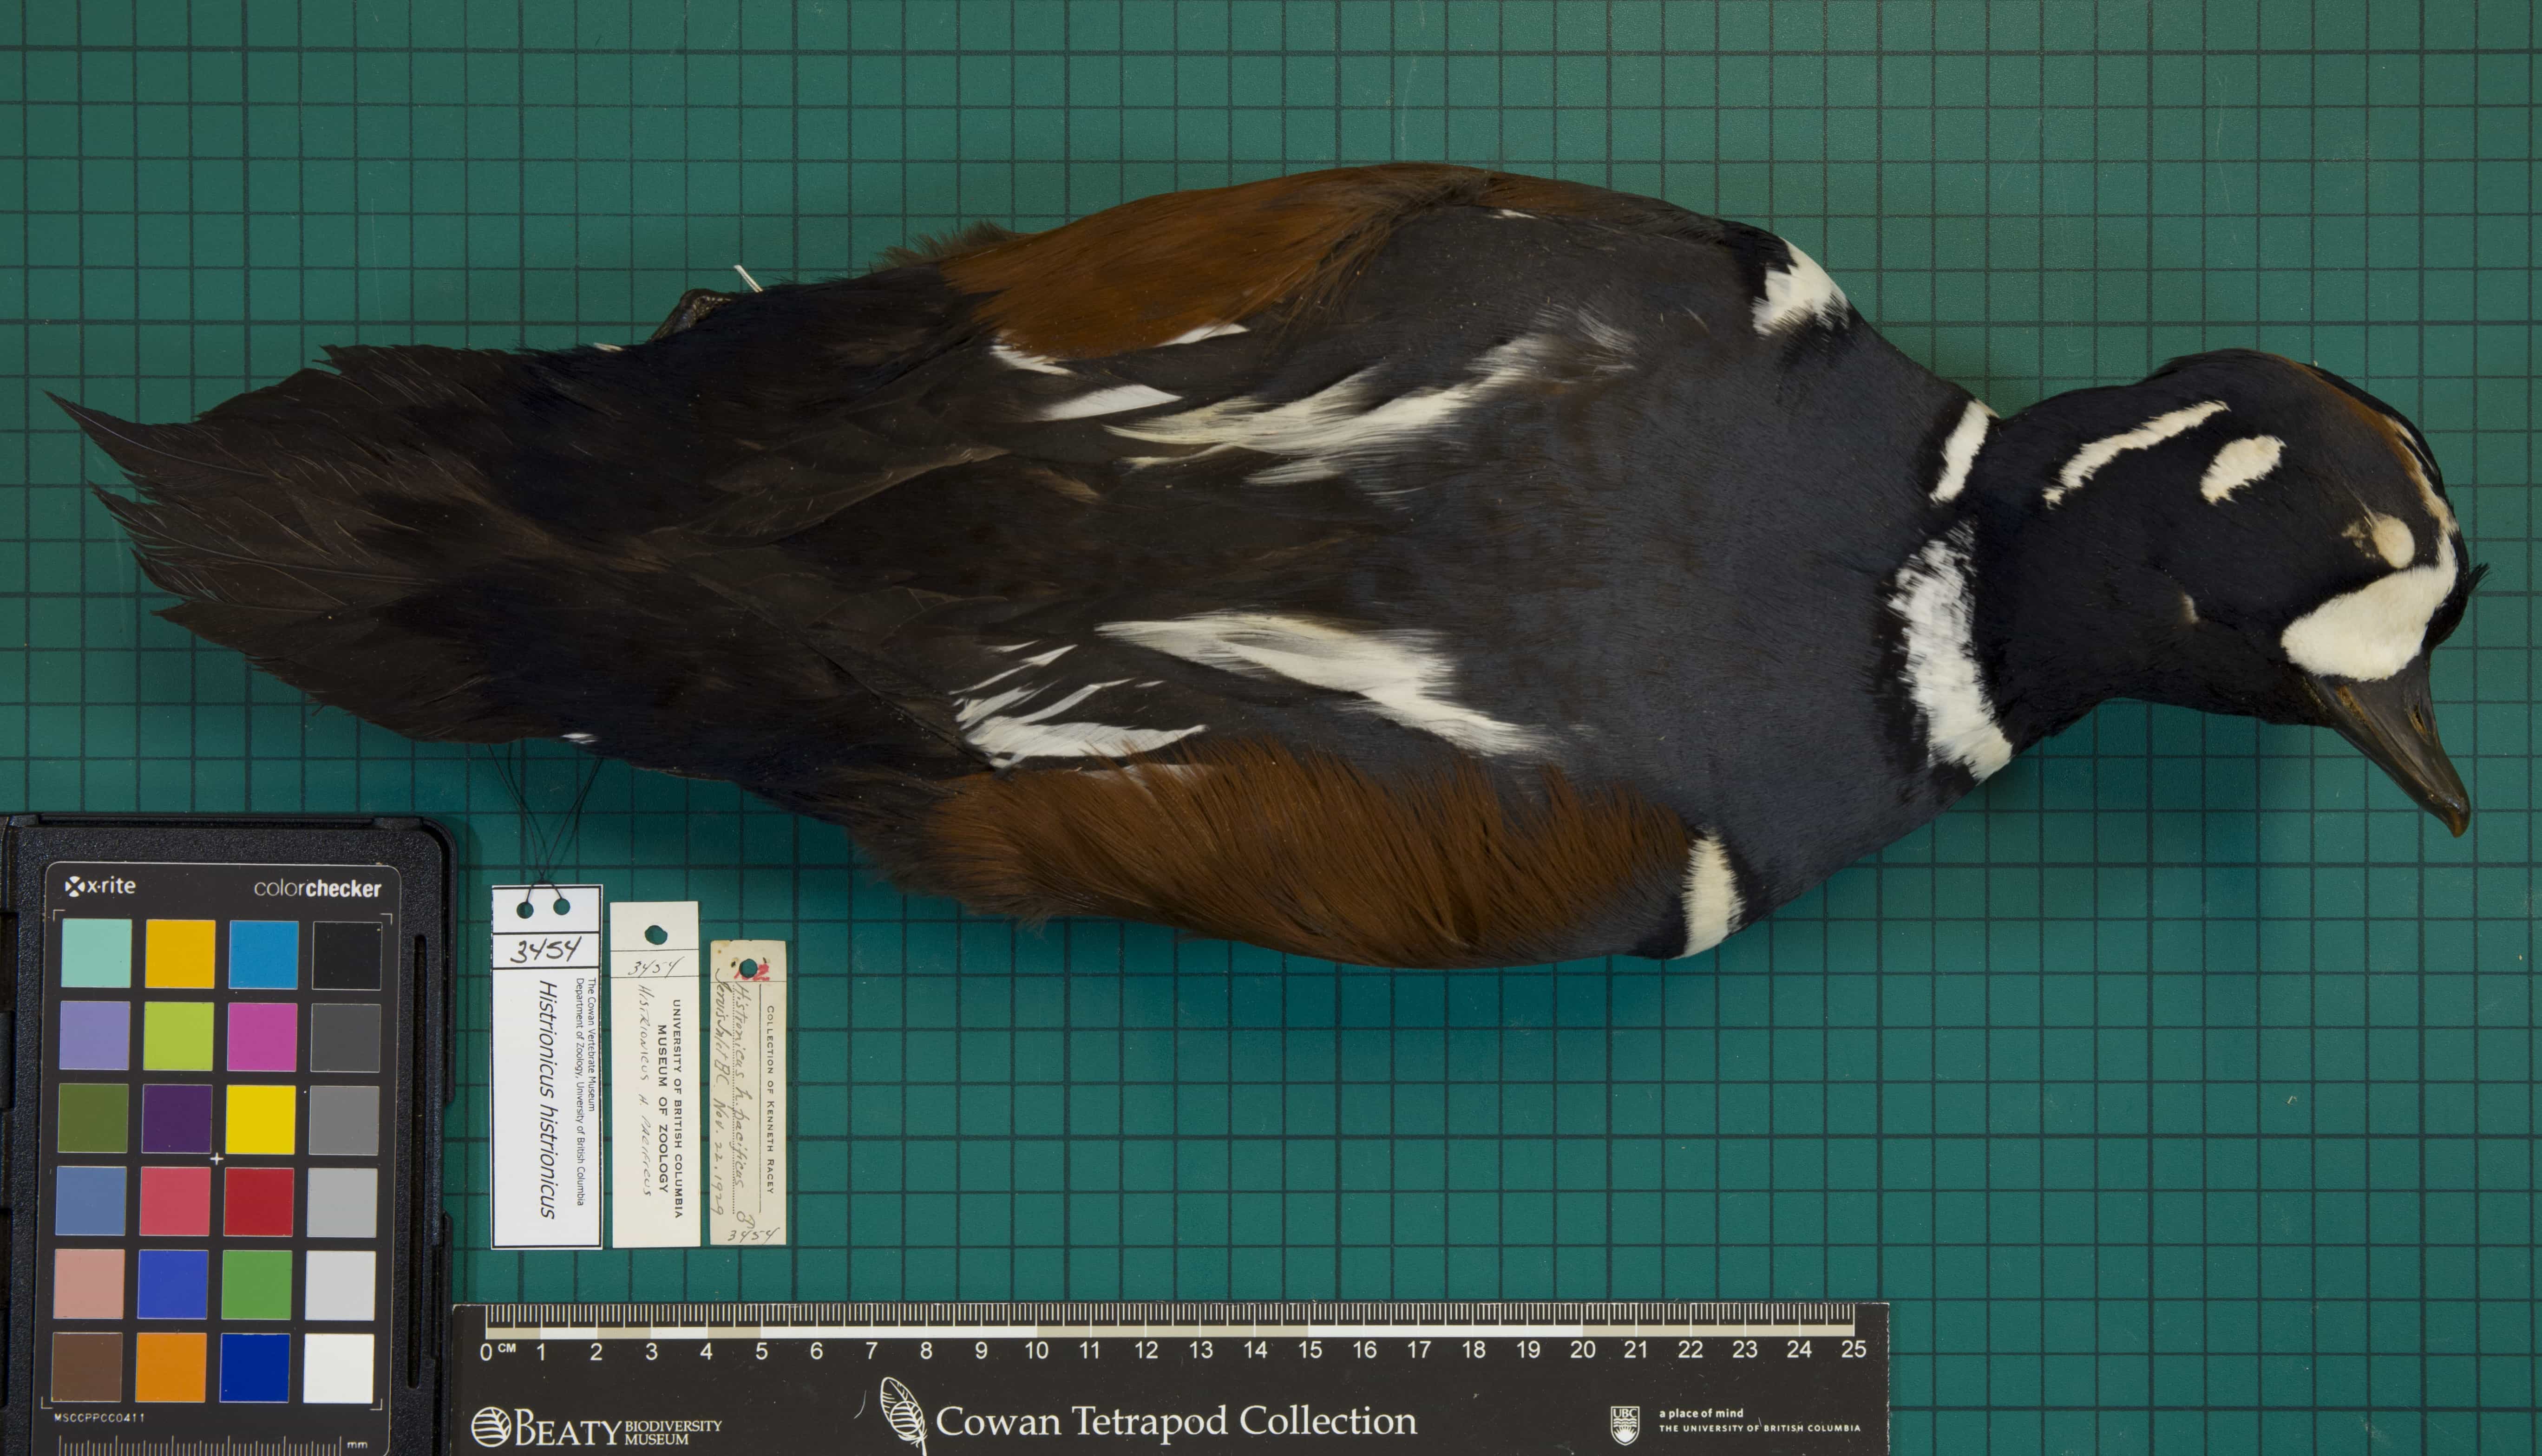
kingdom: Animalia
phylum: Chordata
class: Aves
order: Anseriformes
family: Anatidae
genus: Histrionicus
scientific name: Histrionicus histrionicus
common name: Harlequin Duck
